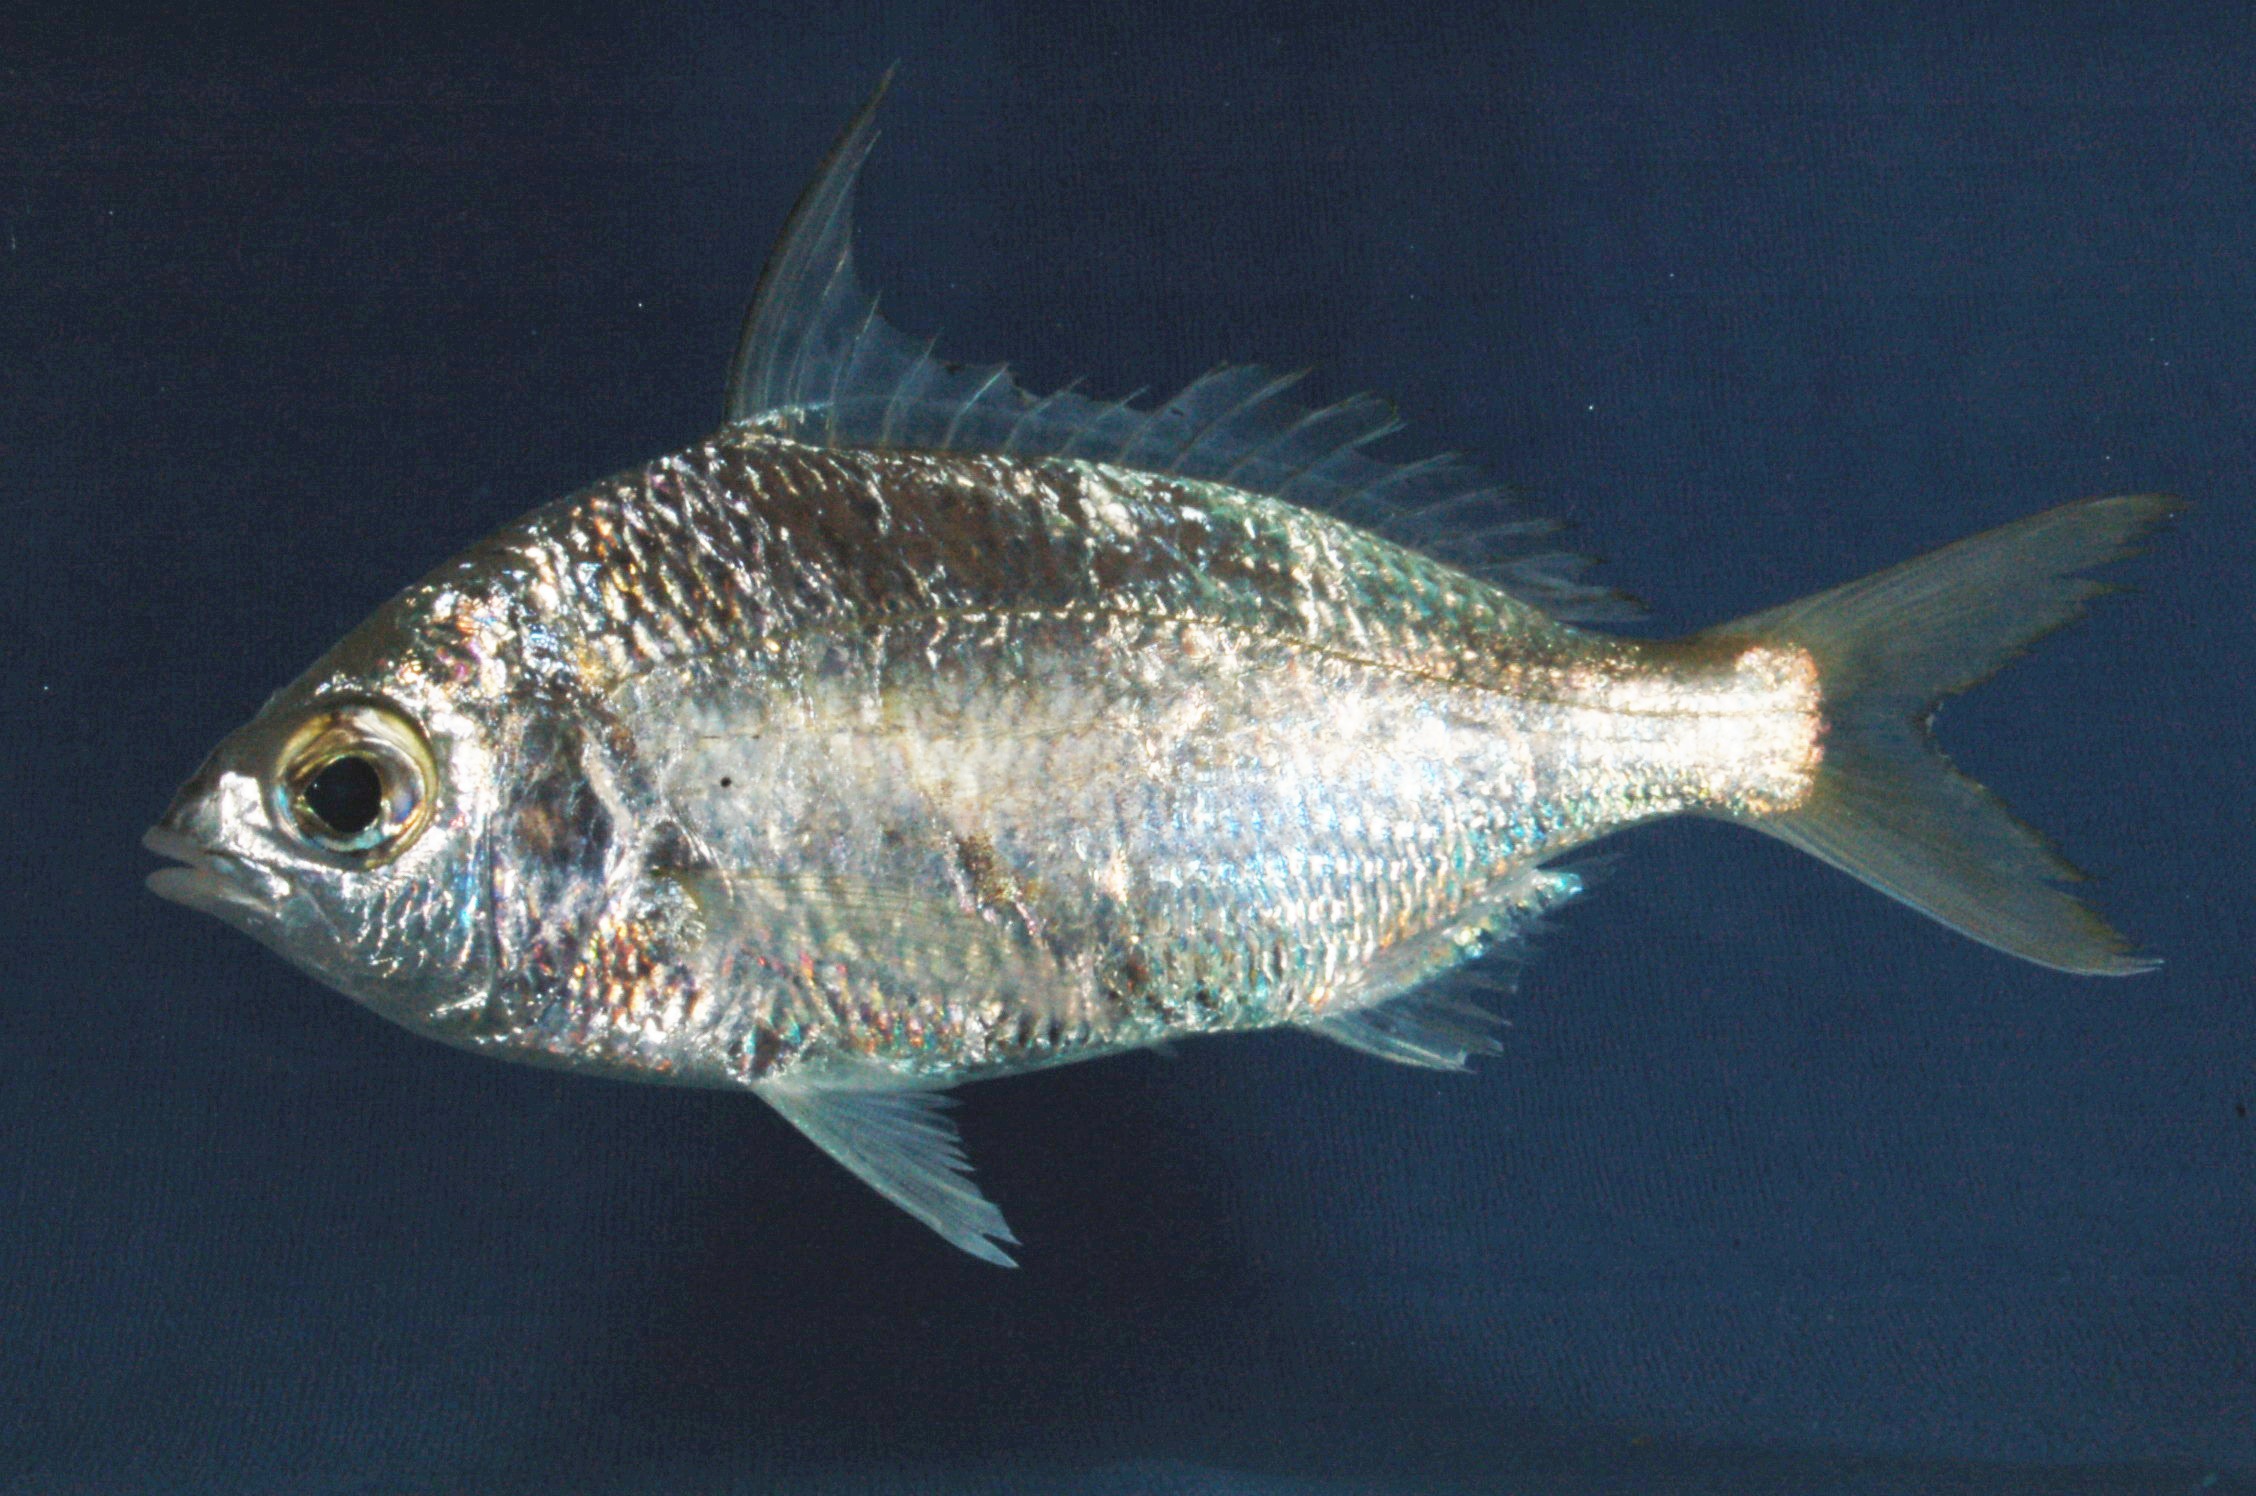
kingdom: Animalia
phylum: Chordata
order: Perciformes
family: Gerreidae
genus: Gerres
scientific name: Gerres limbatus
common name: Saddleback silver-biddy
